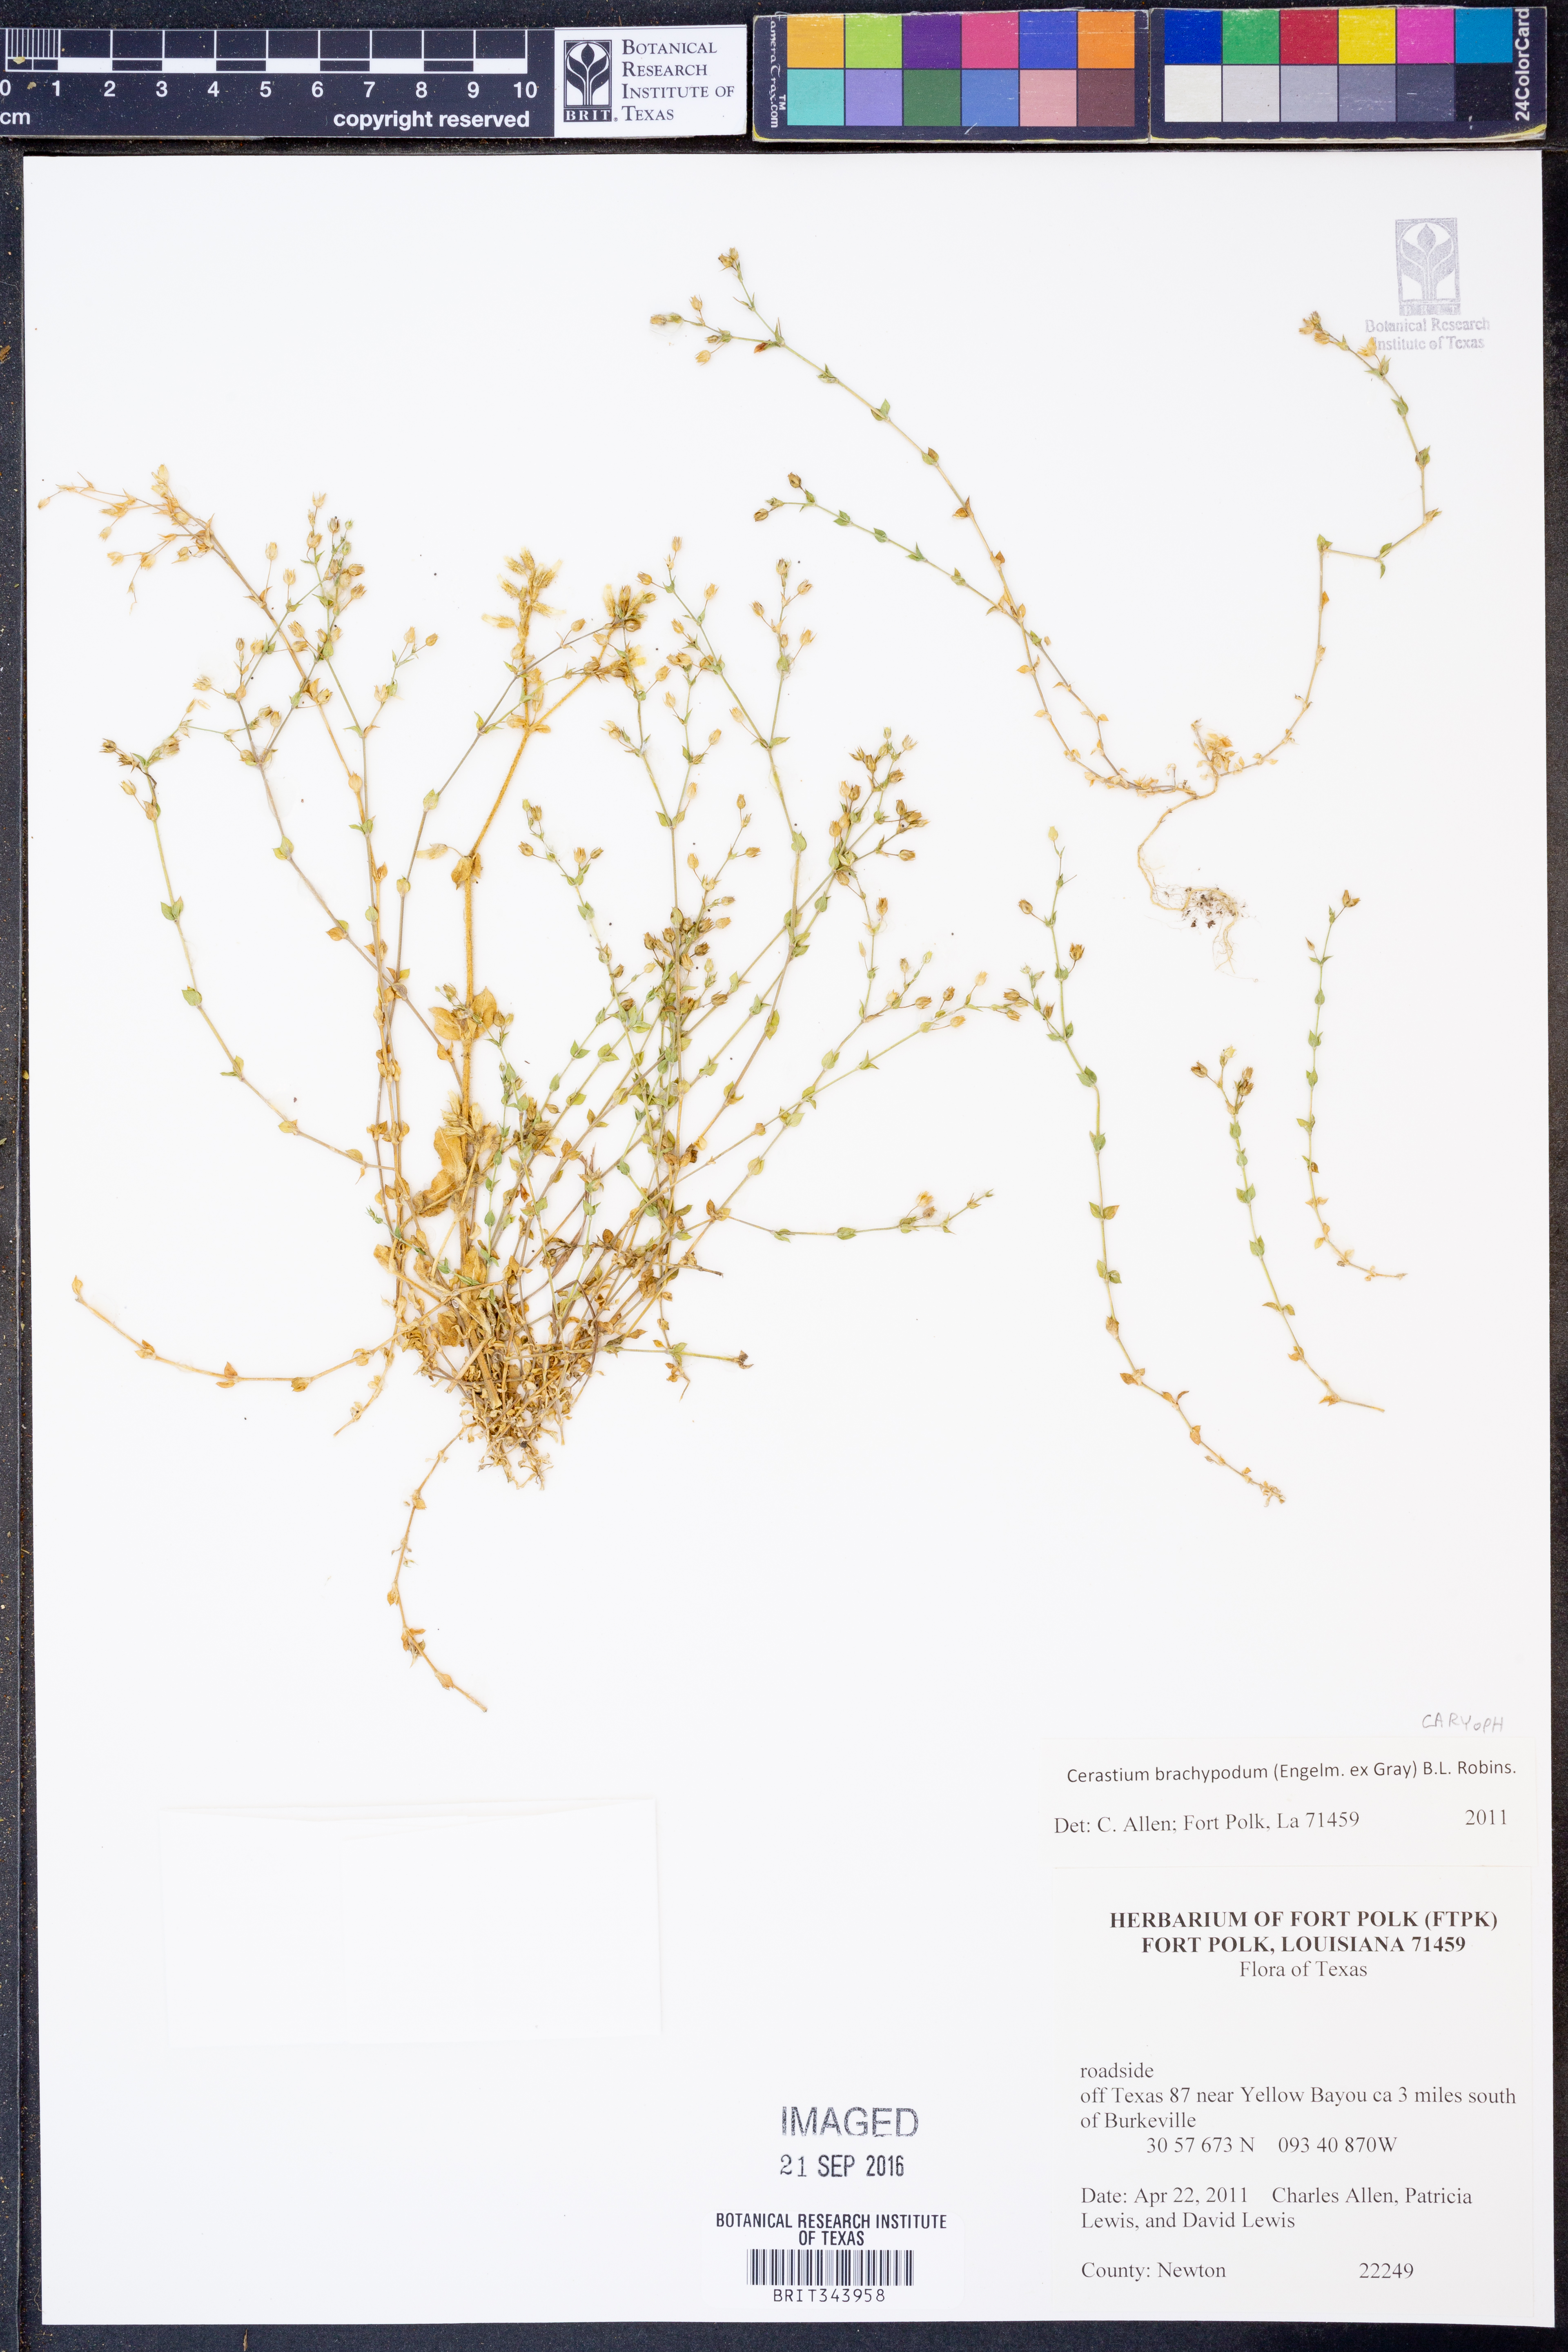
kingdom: Plantae
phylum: Tracheophyta
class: Magnoliopsida
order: Caryophyllales
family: Caryophyllaceae
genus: Cerastium
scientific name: Cerastium brachypodum
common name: Short-pedicelled nodding chickweed
